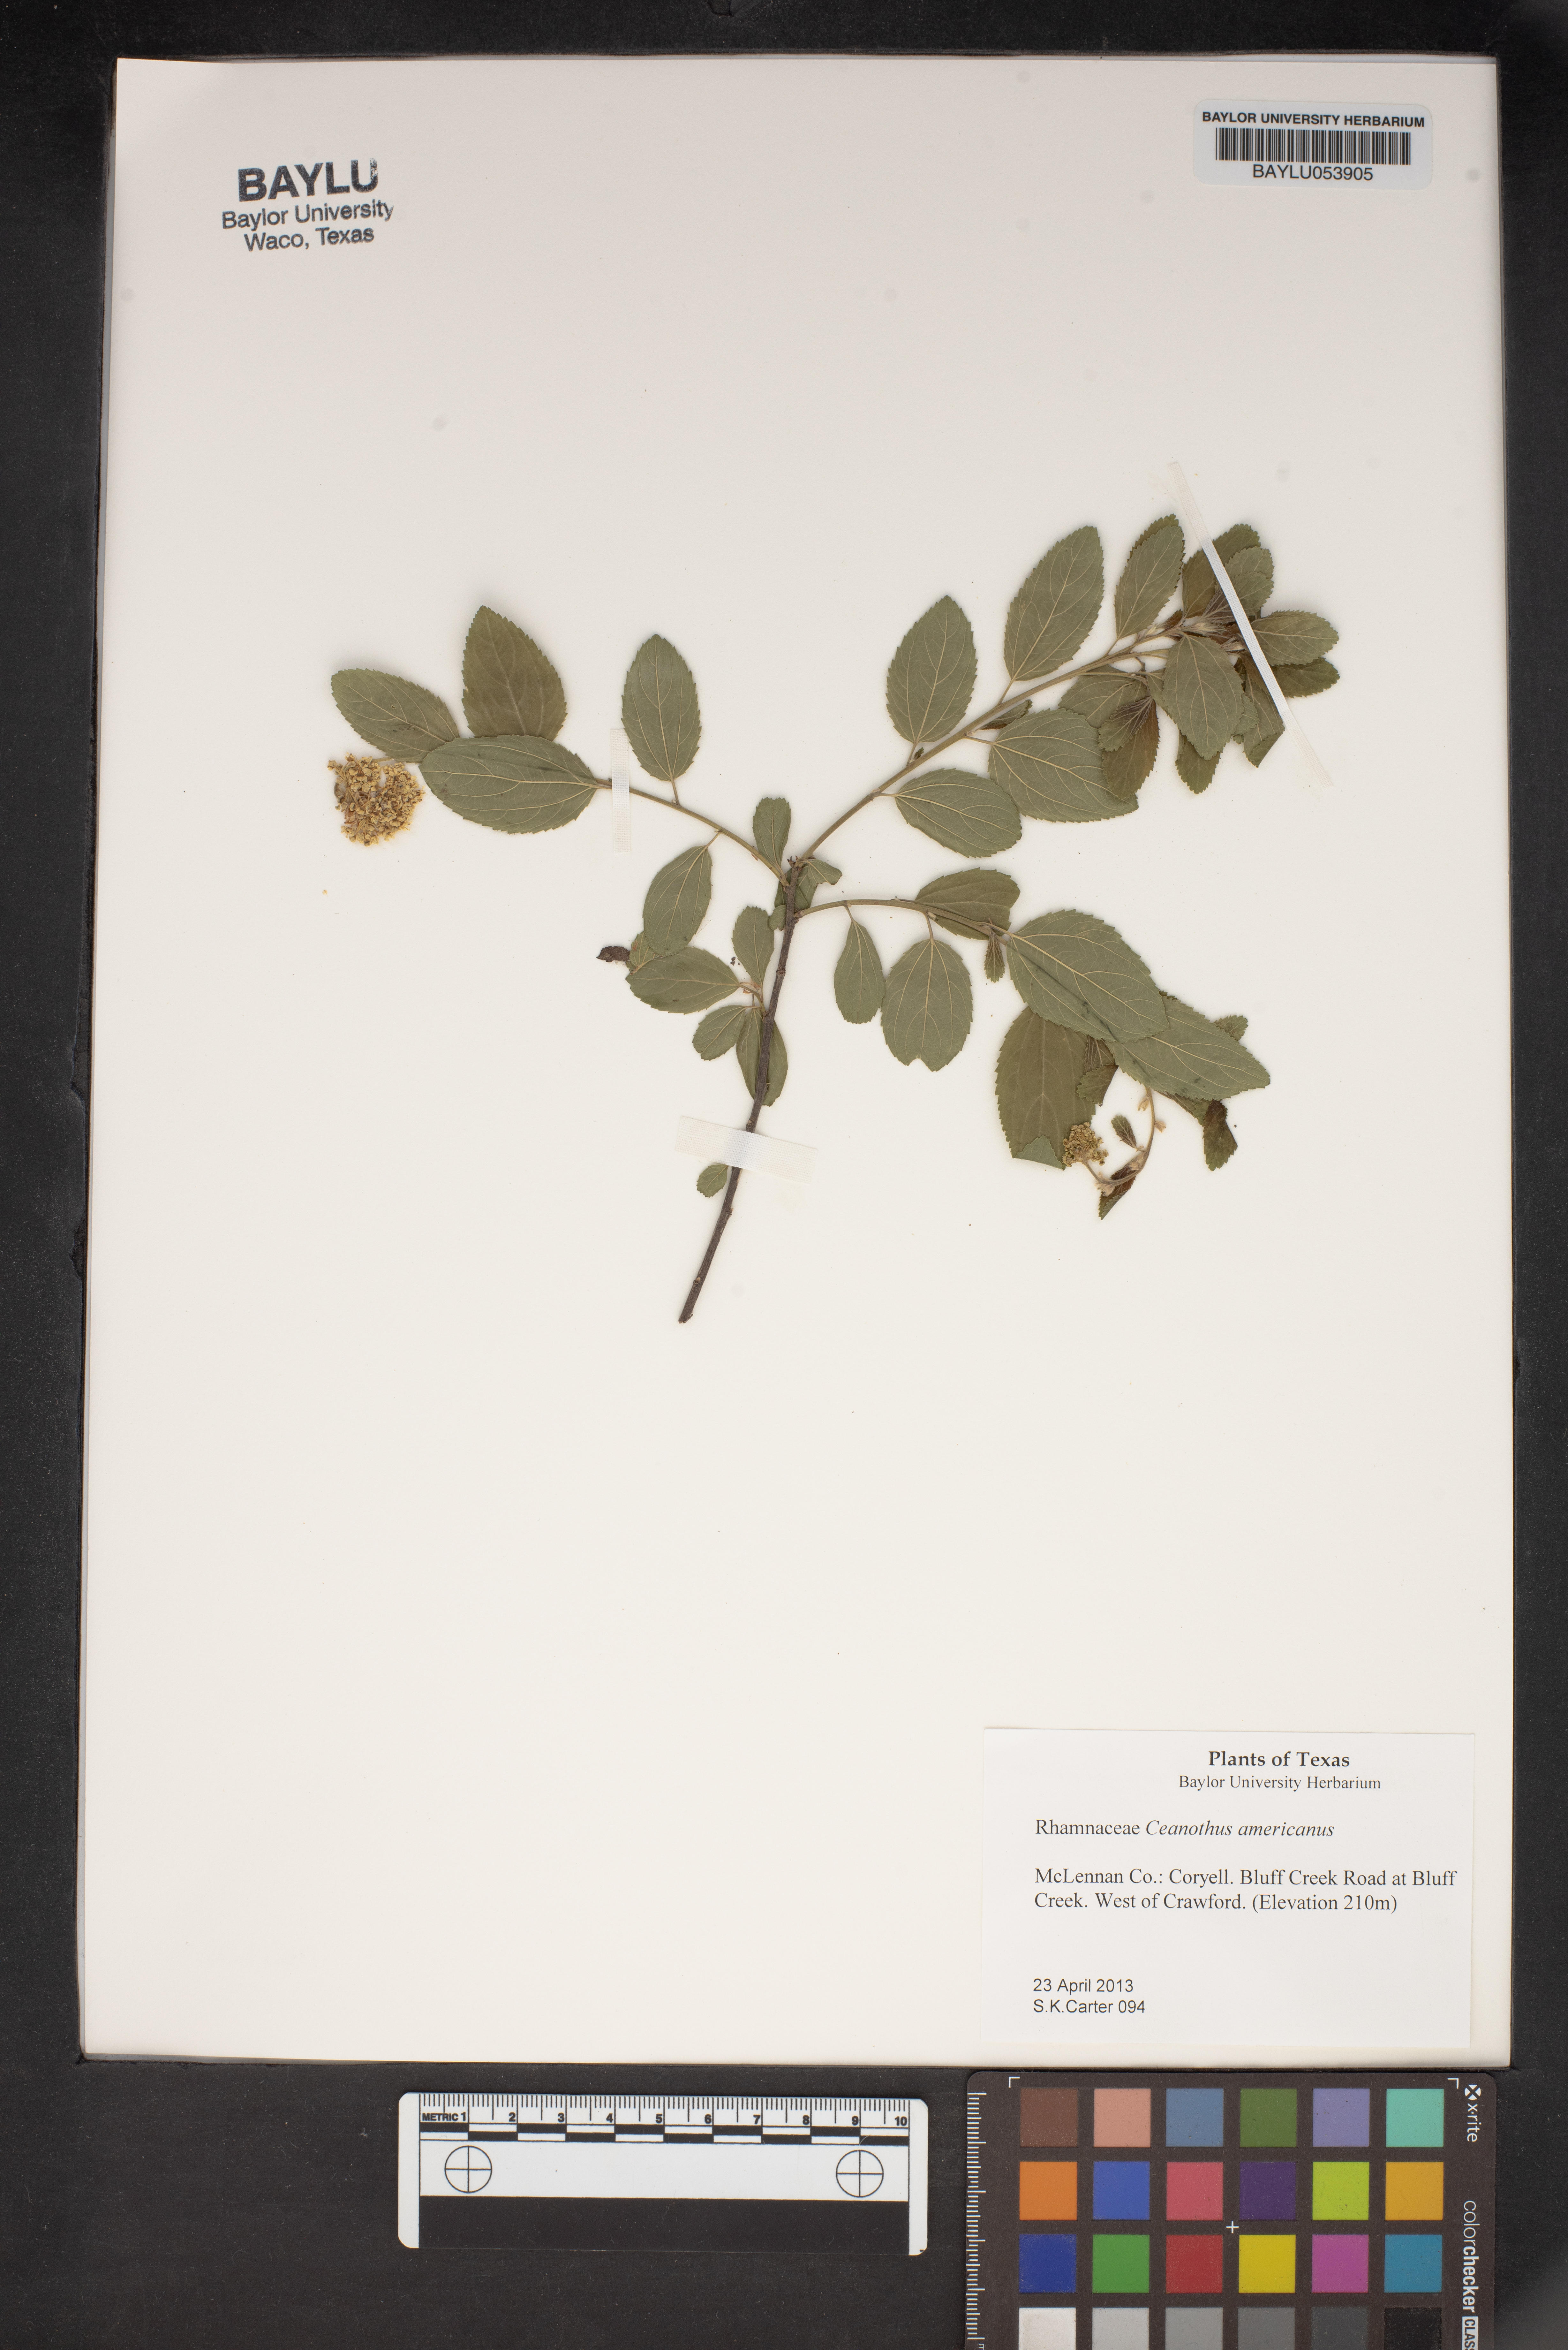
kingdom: Plantae
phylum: Tracheophyta
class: Magnoliopsida
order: Rosales
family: Rhamnaceae
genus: Ceanothus
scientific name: Ceanothus americanus
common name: Redroot
